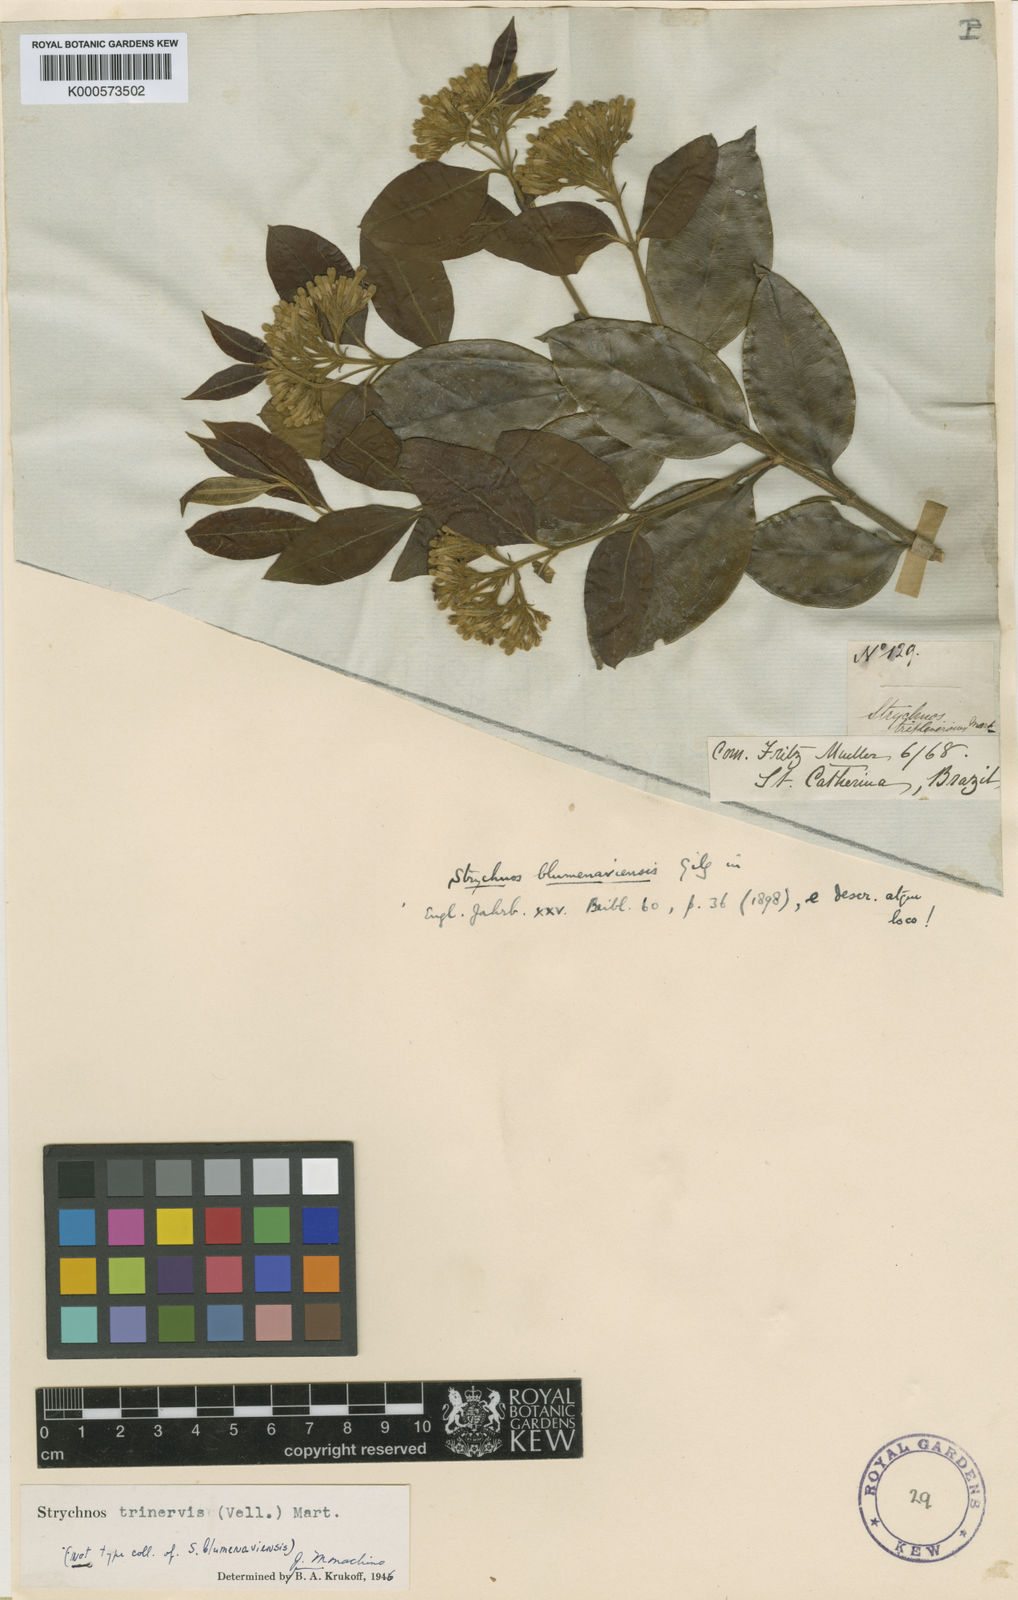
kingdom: Plantae
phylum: Tracheophyta
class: Magnoliopsida
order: Gentianales
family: Loganiaceae
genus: Strychnos
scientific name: Strychnos
